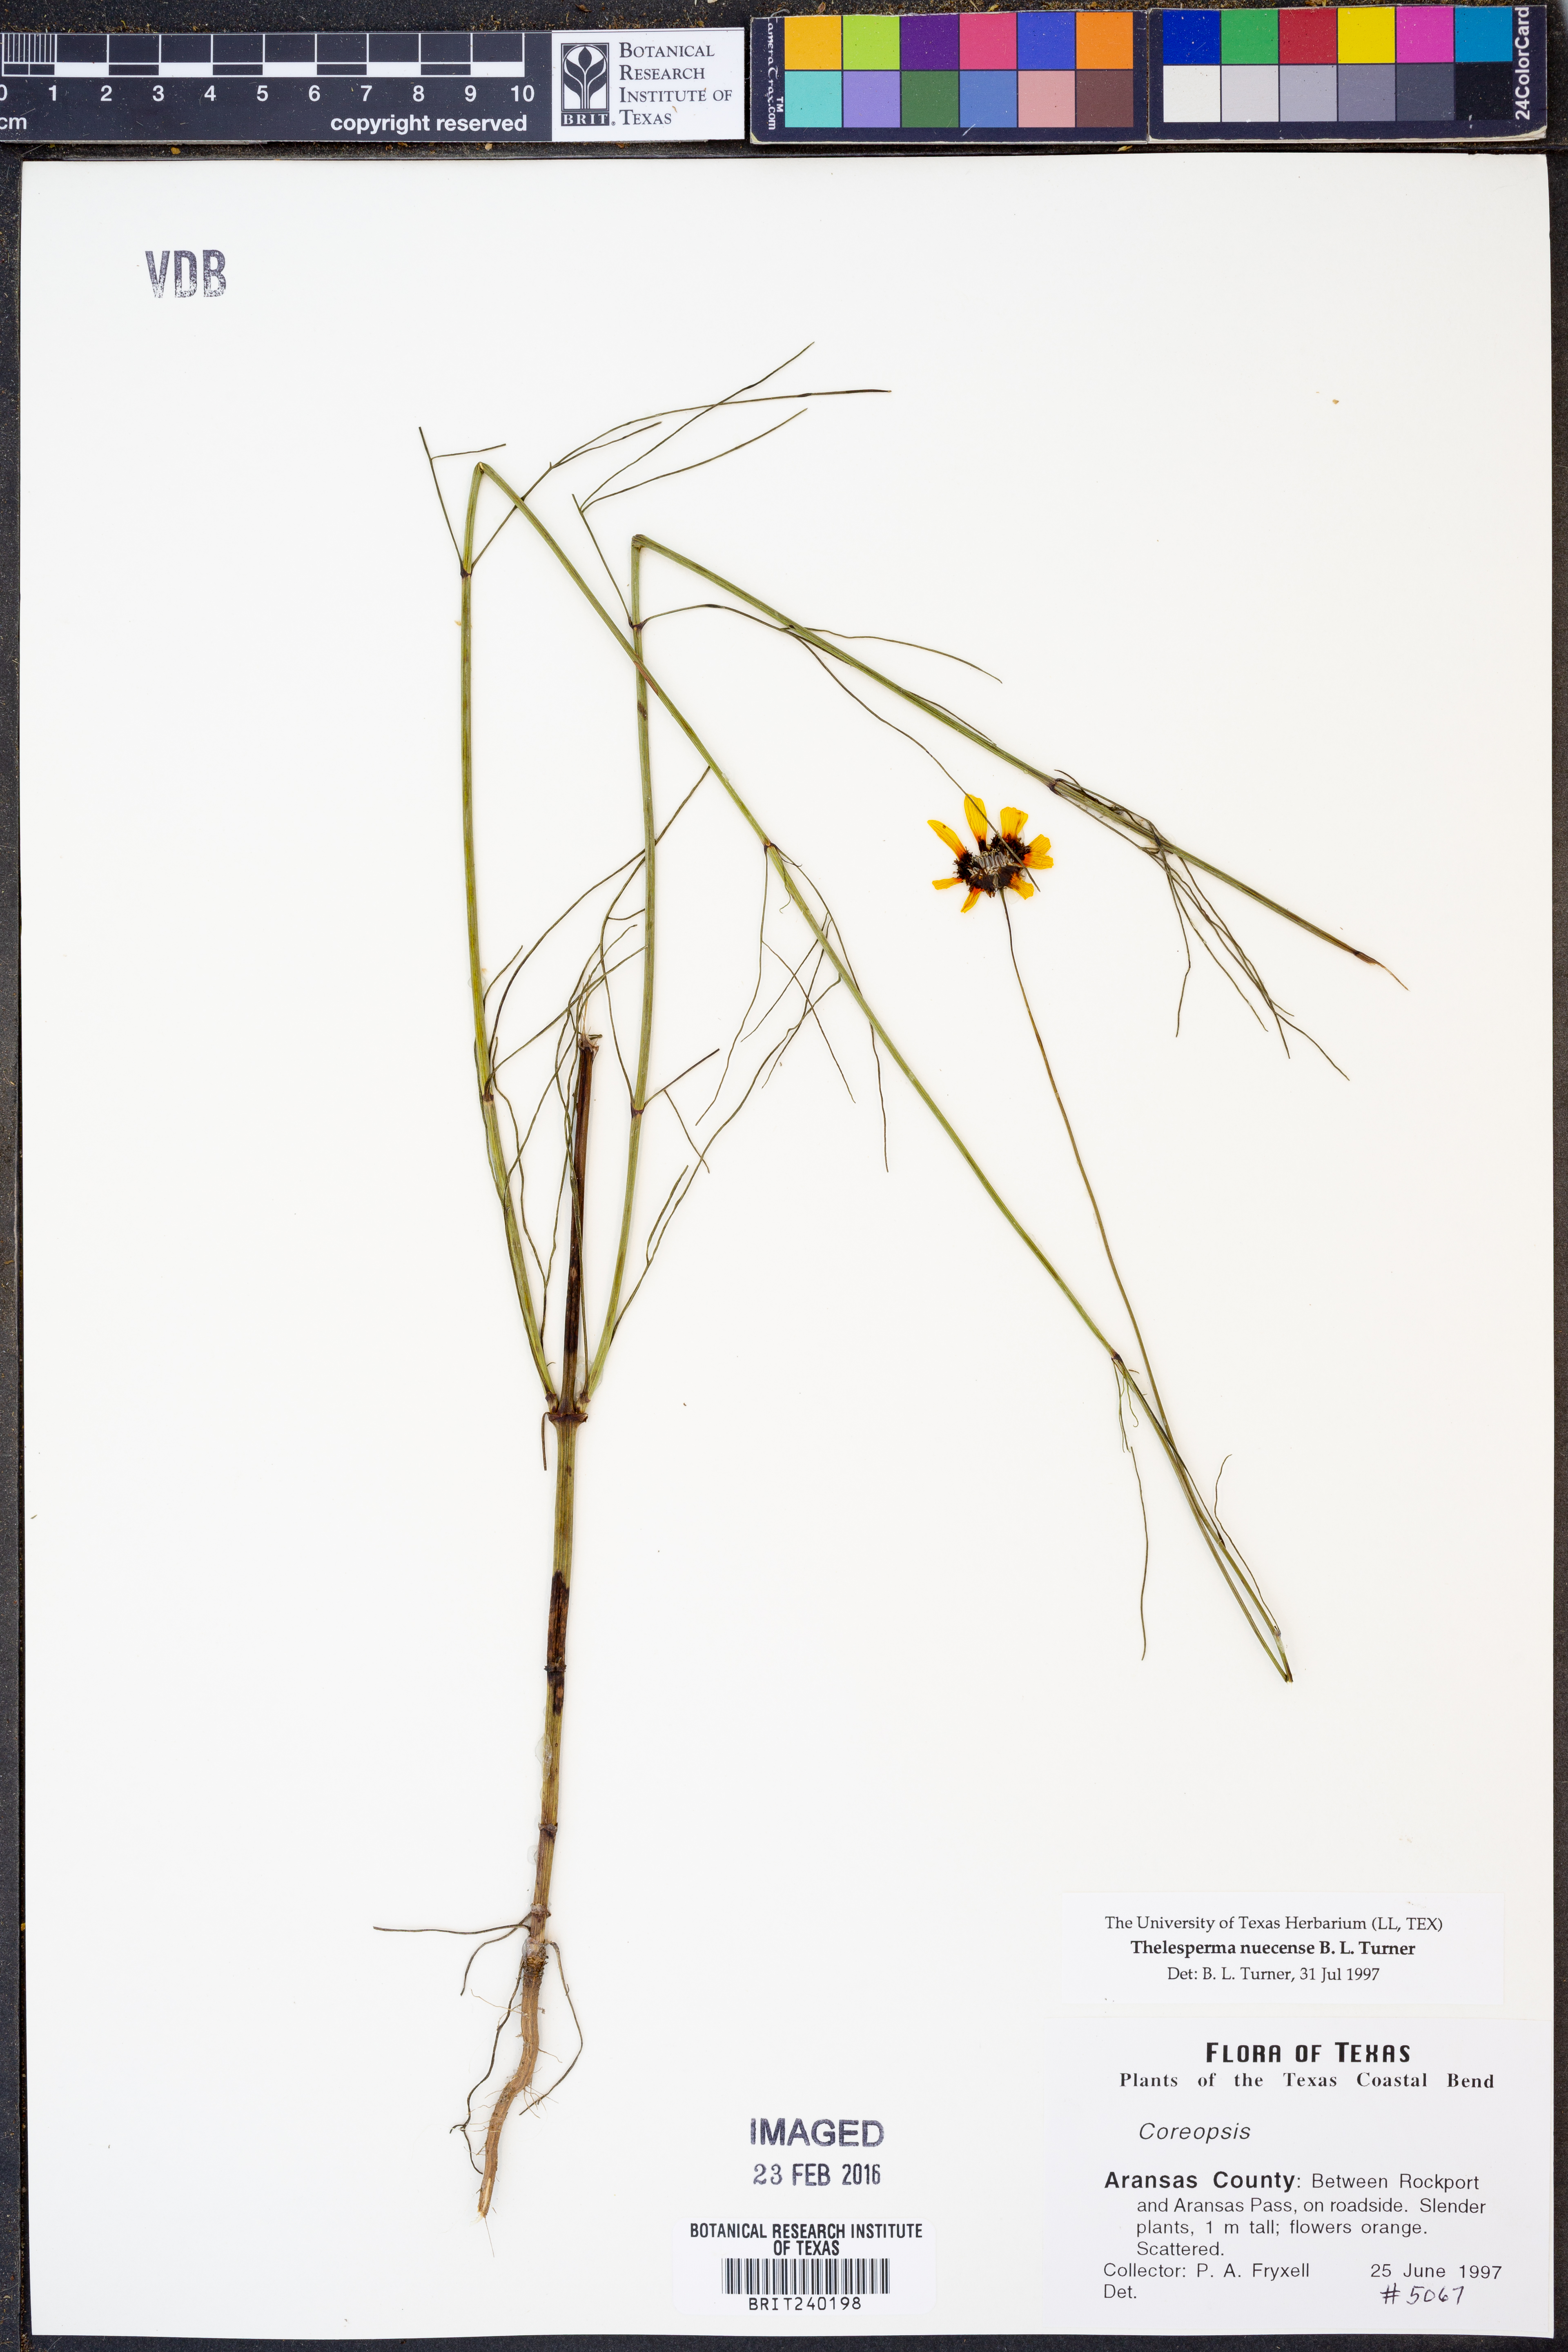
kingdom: Plantae
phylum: Tracheophyta
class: Magnoliopsida
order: Asterales
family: Asteraceae
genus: Thelesperma
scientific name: Thelesperma nuecense
